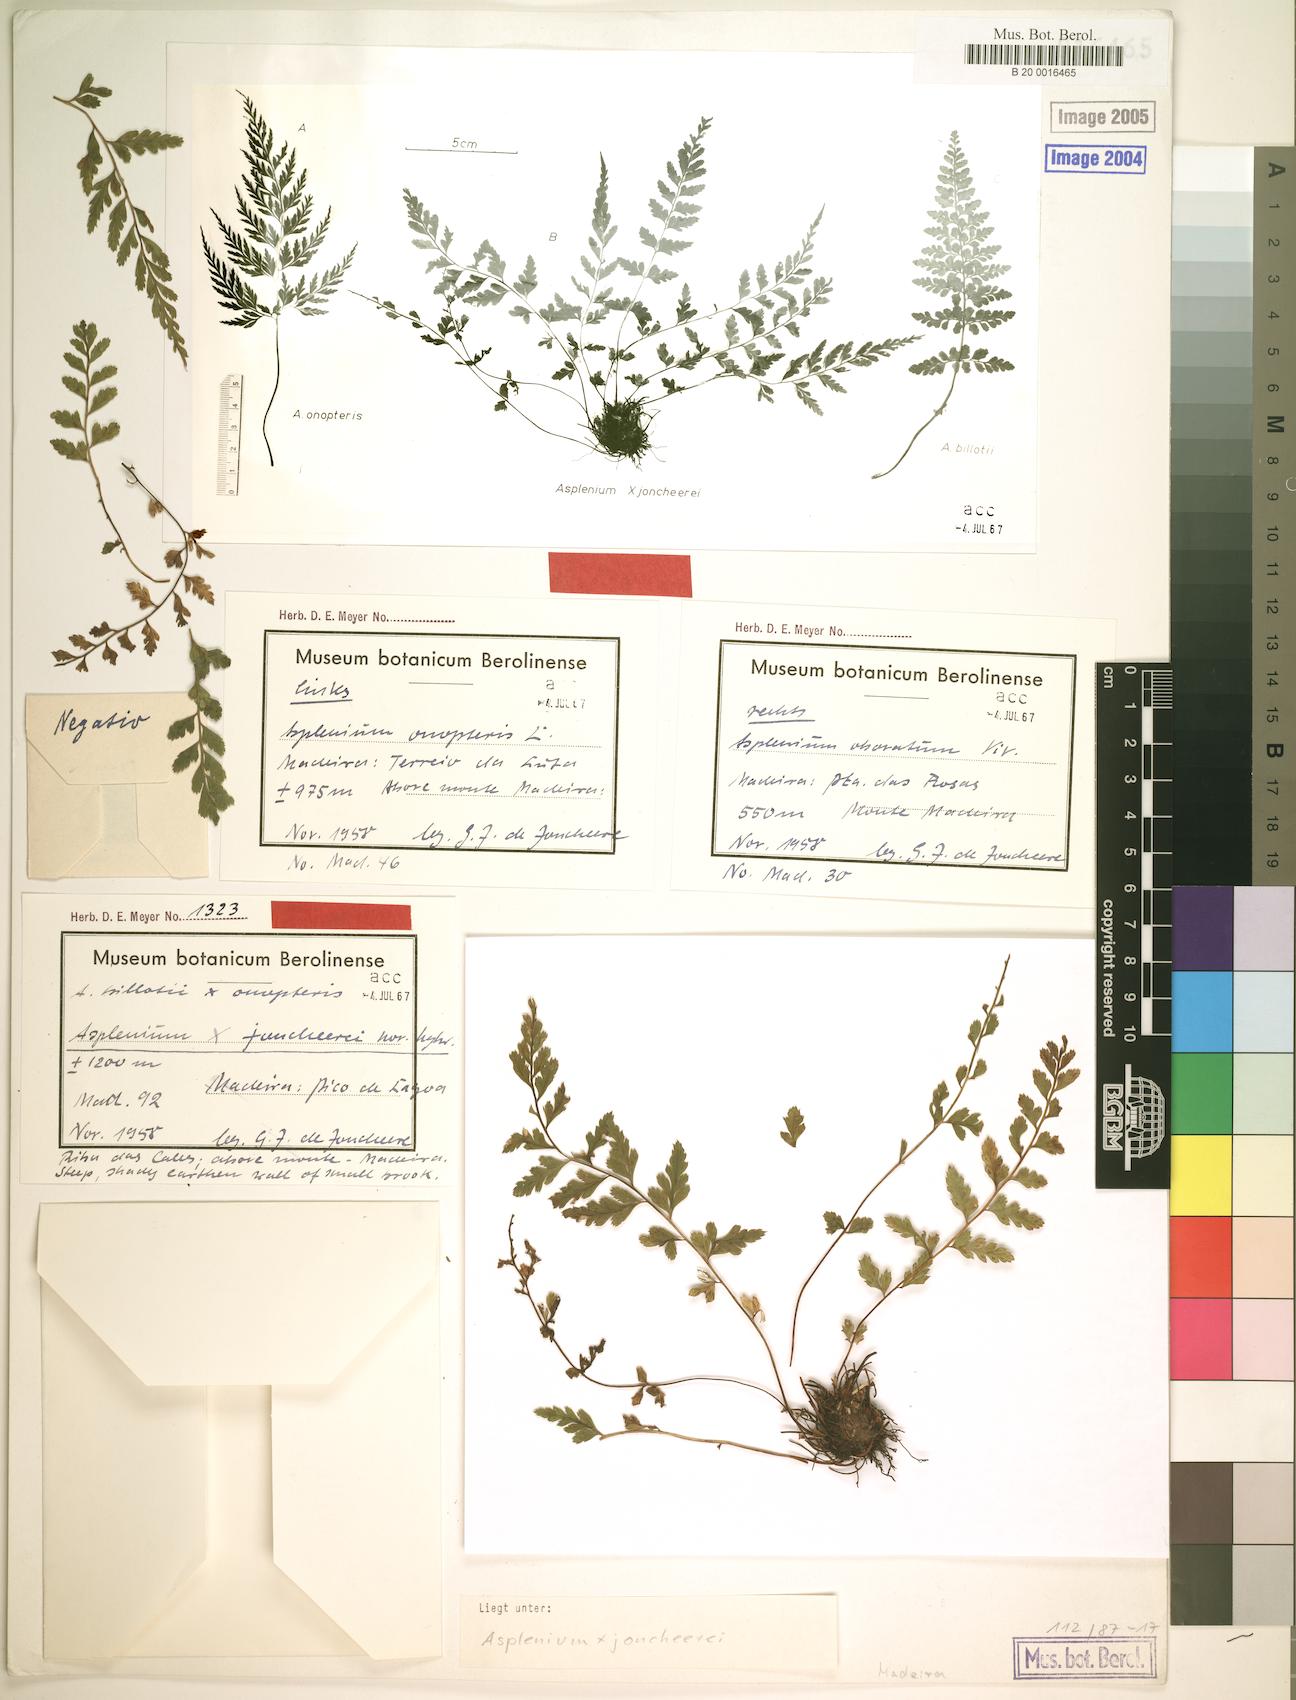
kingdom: Plantae
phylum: Tracheophyta
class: Polypodiopsida
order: Polypodiales
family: Aspleniaceae
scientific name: Aspleniaceae
